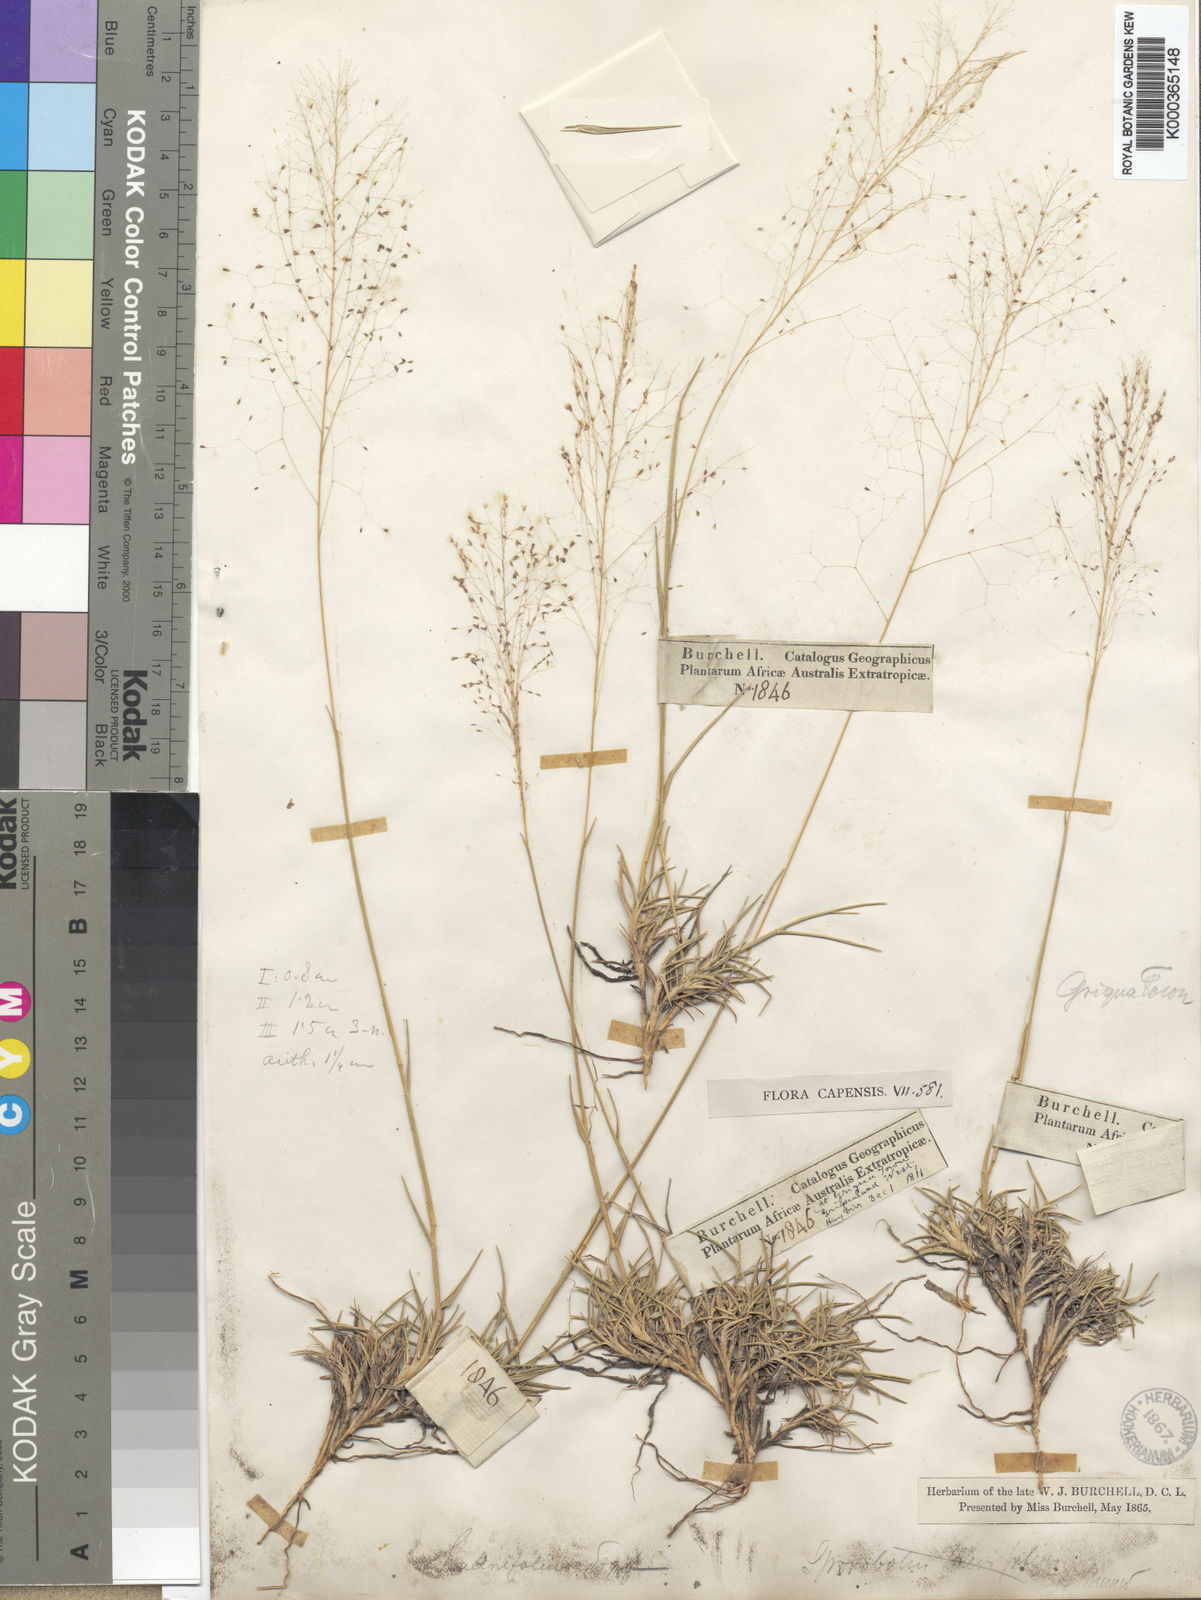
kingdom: Plantae
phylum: Tracheophyta
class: Liliopsida
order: Poales
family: Poaceae
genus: Sporobolus
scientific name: Sporobolus acinifolius
